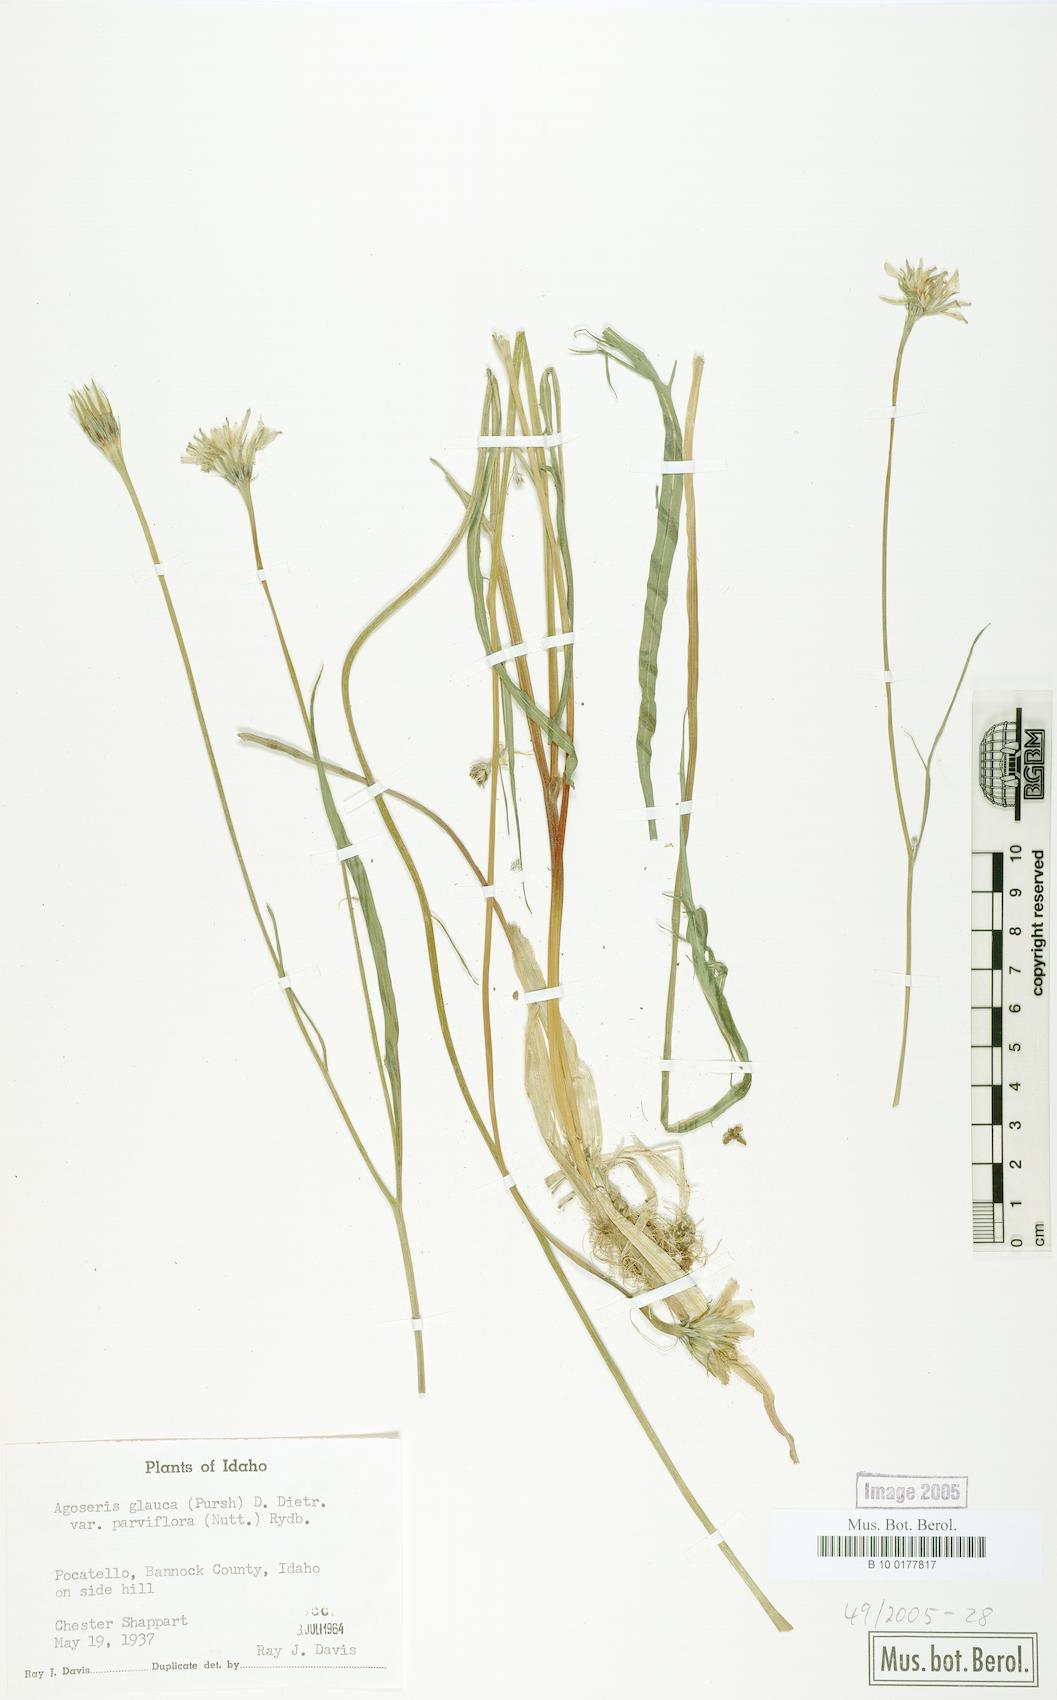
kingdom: Plantae
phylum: Tracheophyta
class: Magnoliopsida
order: Asterales
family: Asteraceae
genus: Agoseris
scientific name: Agoseris parviflora
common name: Steppe agoseris
